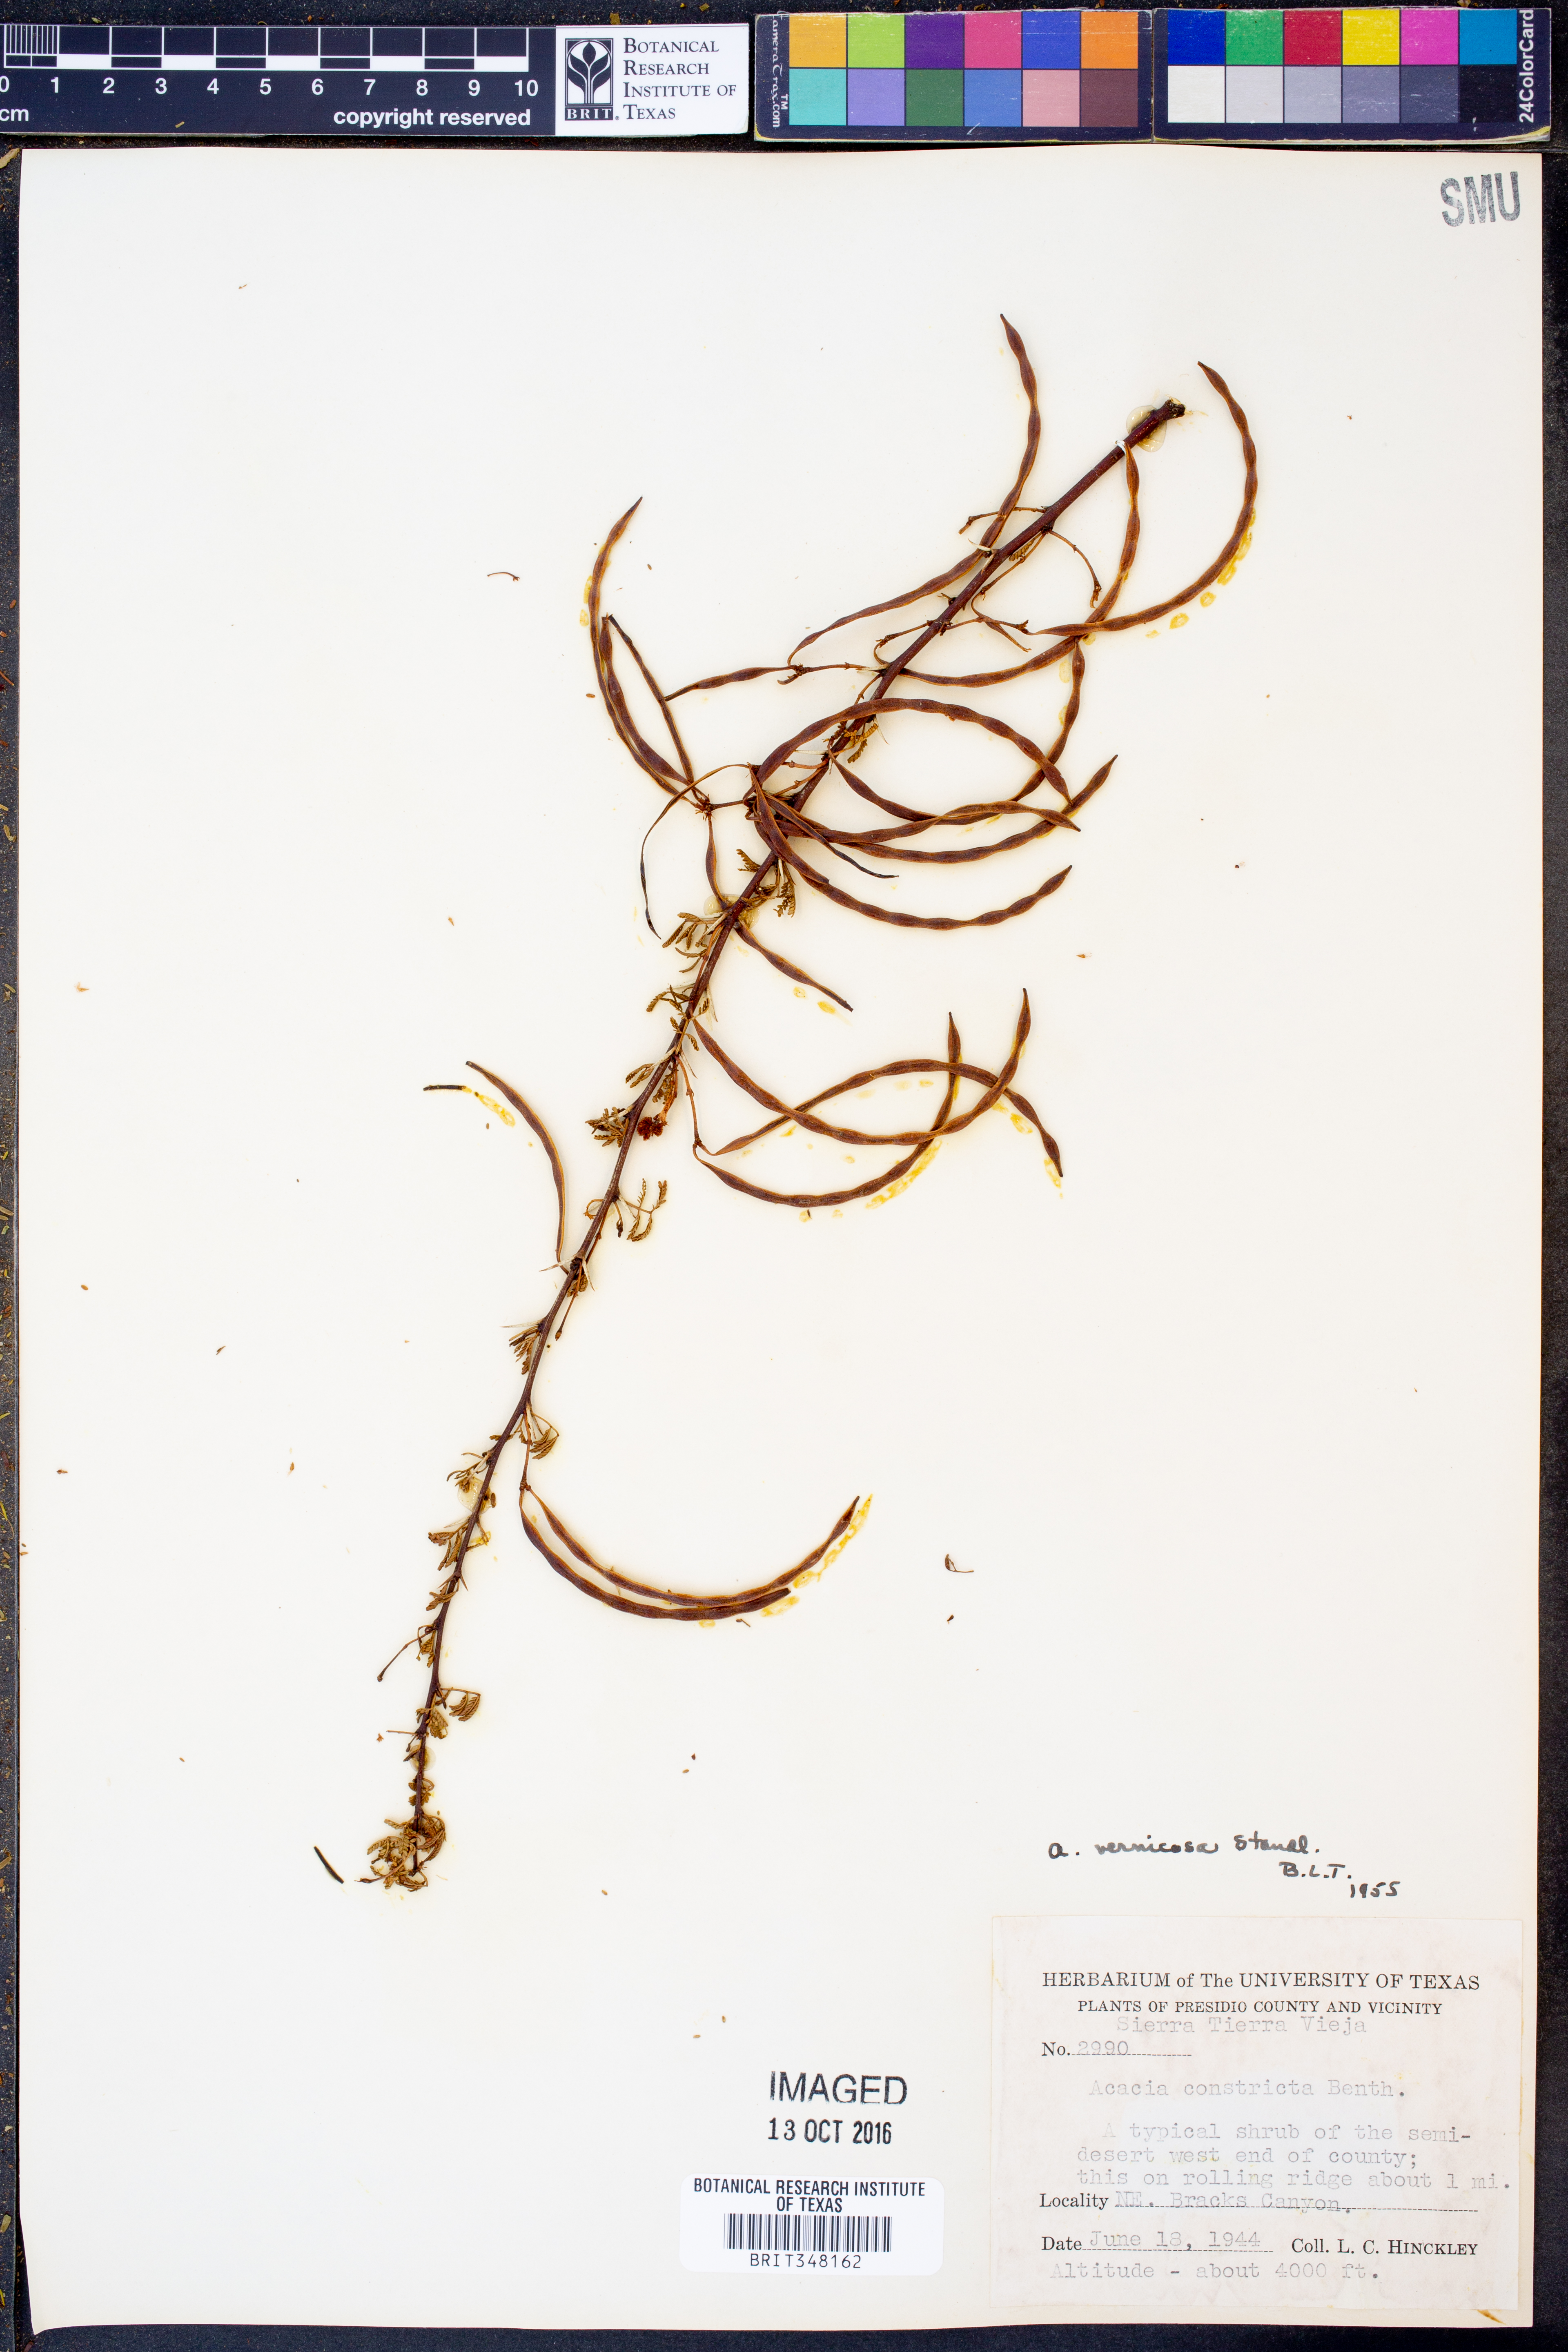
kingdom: Plantae
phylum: Tracheophyta
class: Magnoliopsida
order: Fabales
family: Fabaceae
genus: Vachellia
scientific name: Vachellia vernicosa
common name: Viscid acacia
